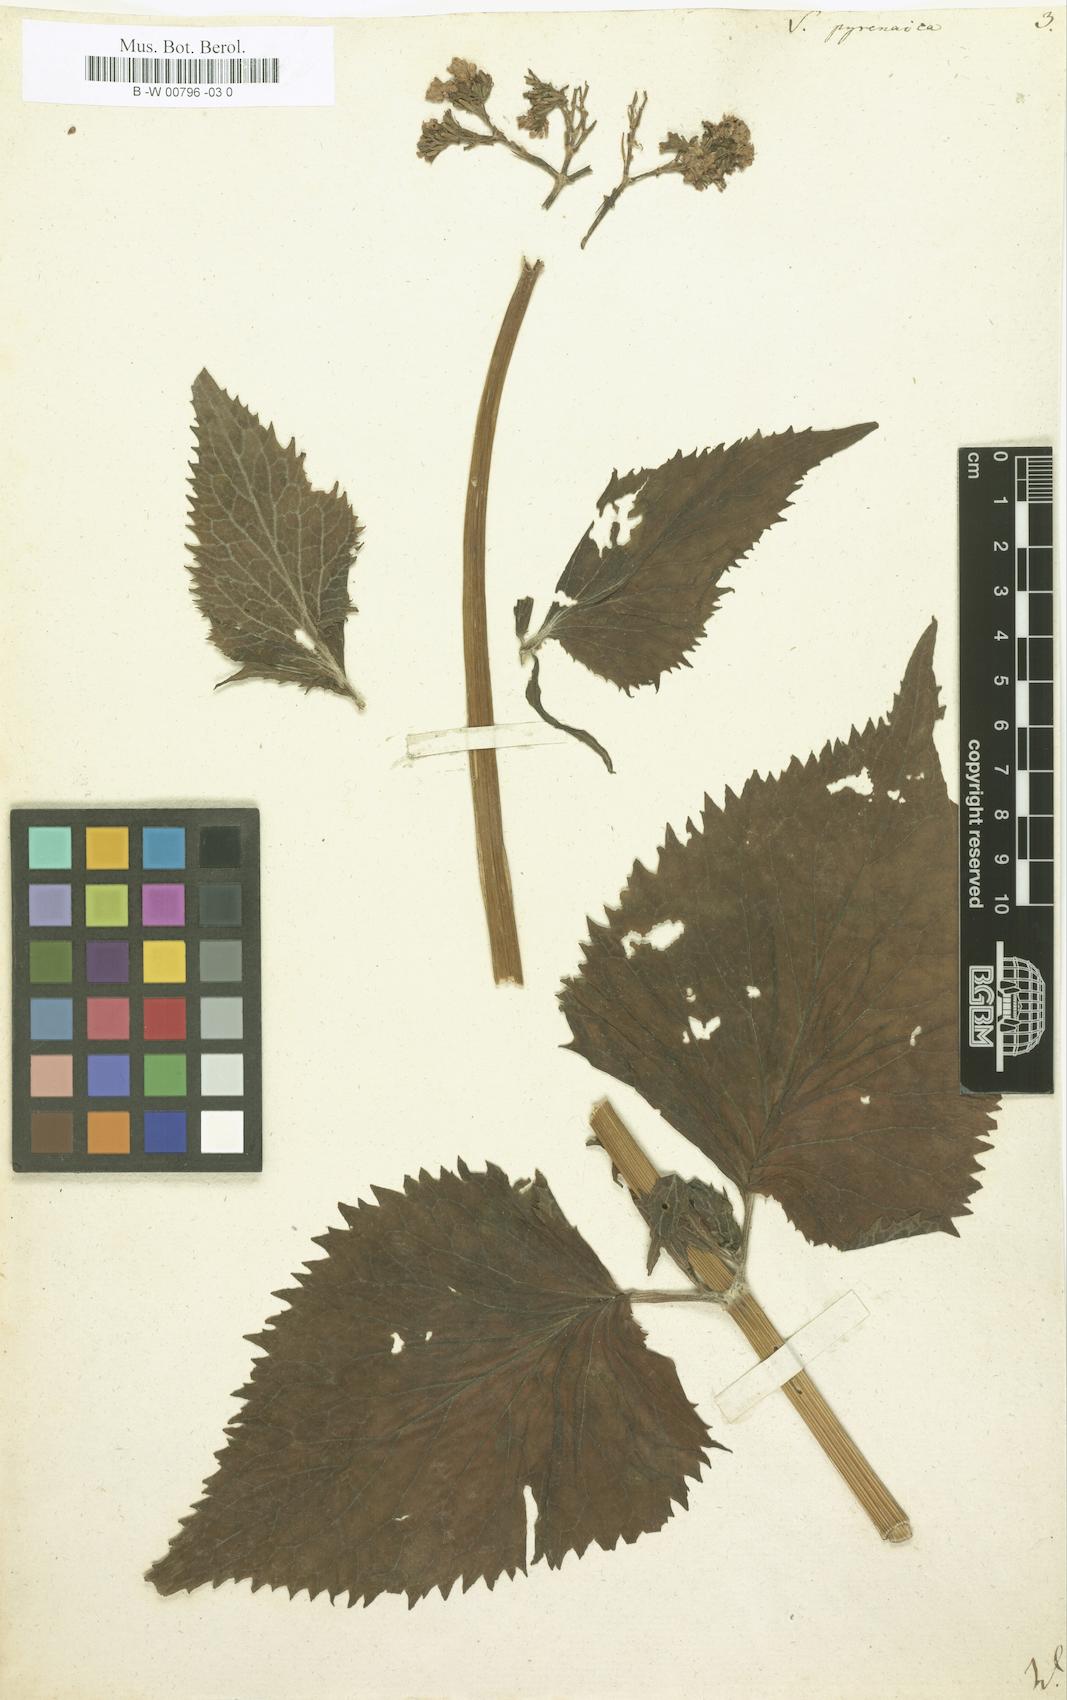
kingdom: Plantae
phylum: Tracheophyta
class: Magnoliopsida
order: Dipsacales
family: Caprifoliaceae
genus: Valeriana
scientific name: Valeriana pyrenaica
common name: Pyrenean valerian
